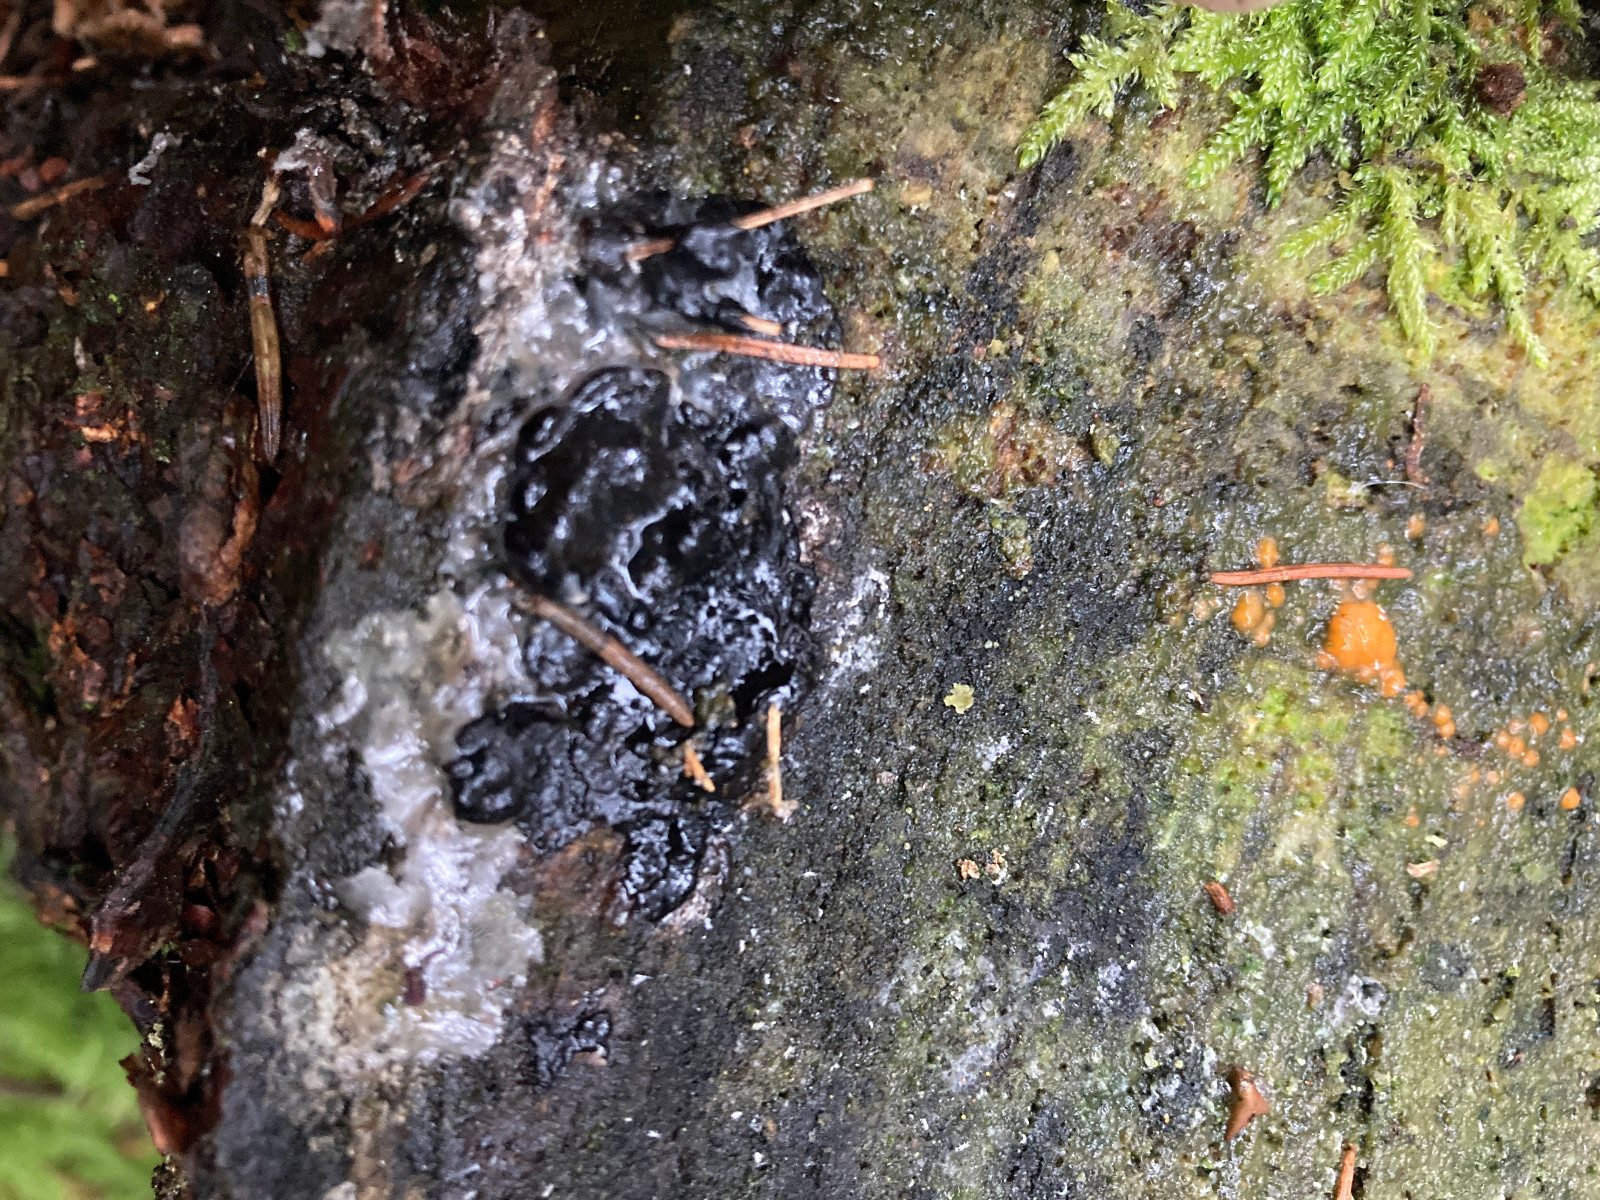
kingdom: Fungi
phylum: Basidiomycota
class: Agaricomycetes
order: Auriculariales
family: Auriculariaceae
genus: Exidia
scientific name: Exidia pithya
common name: gran-bævretop
